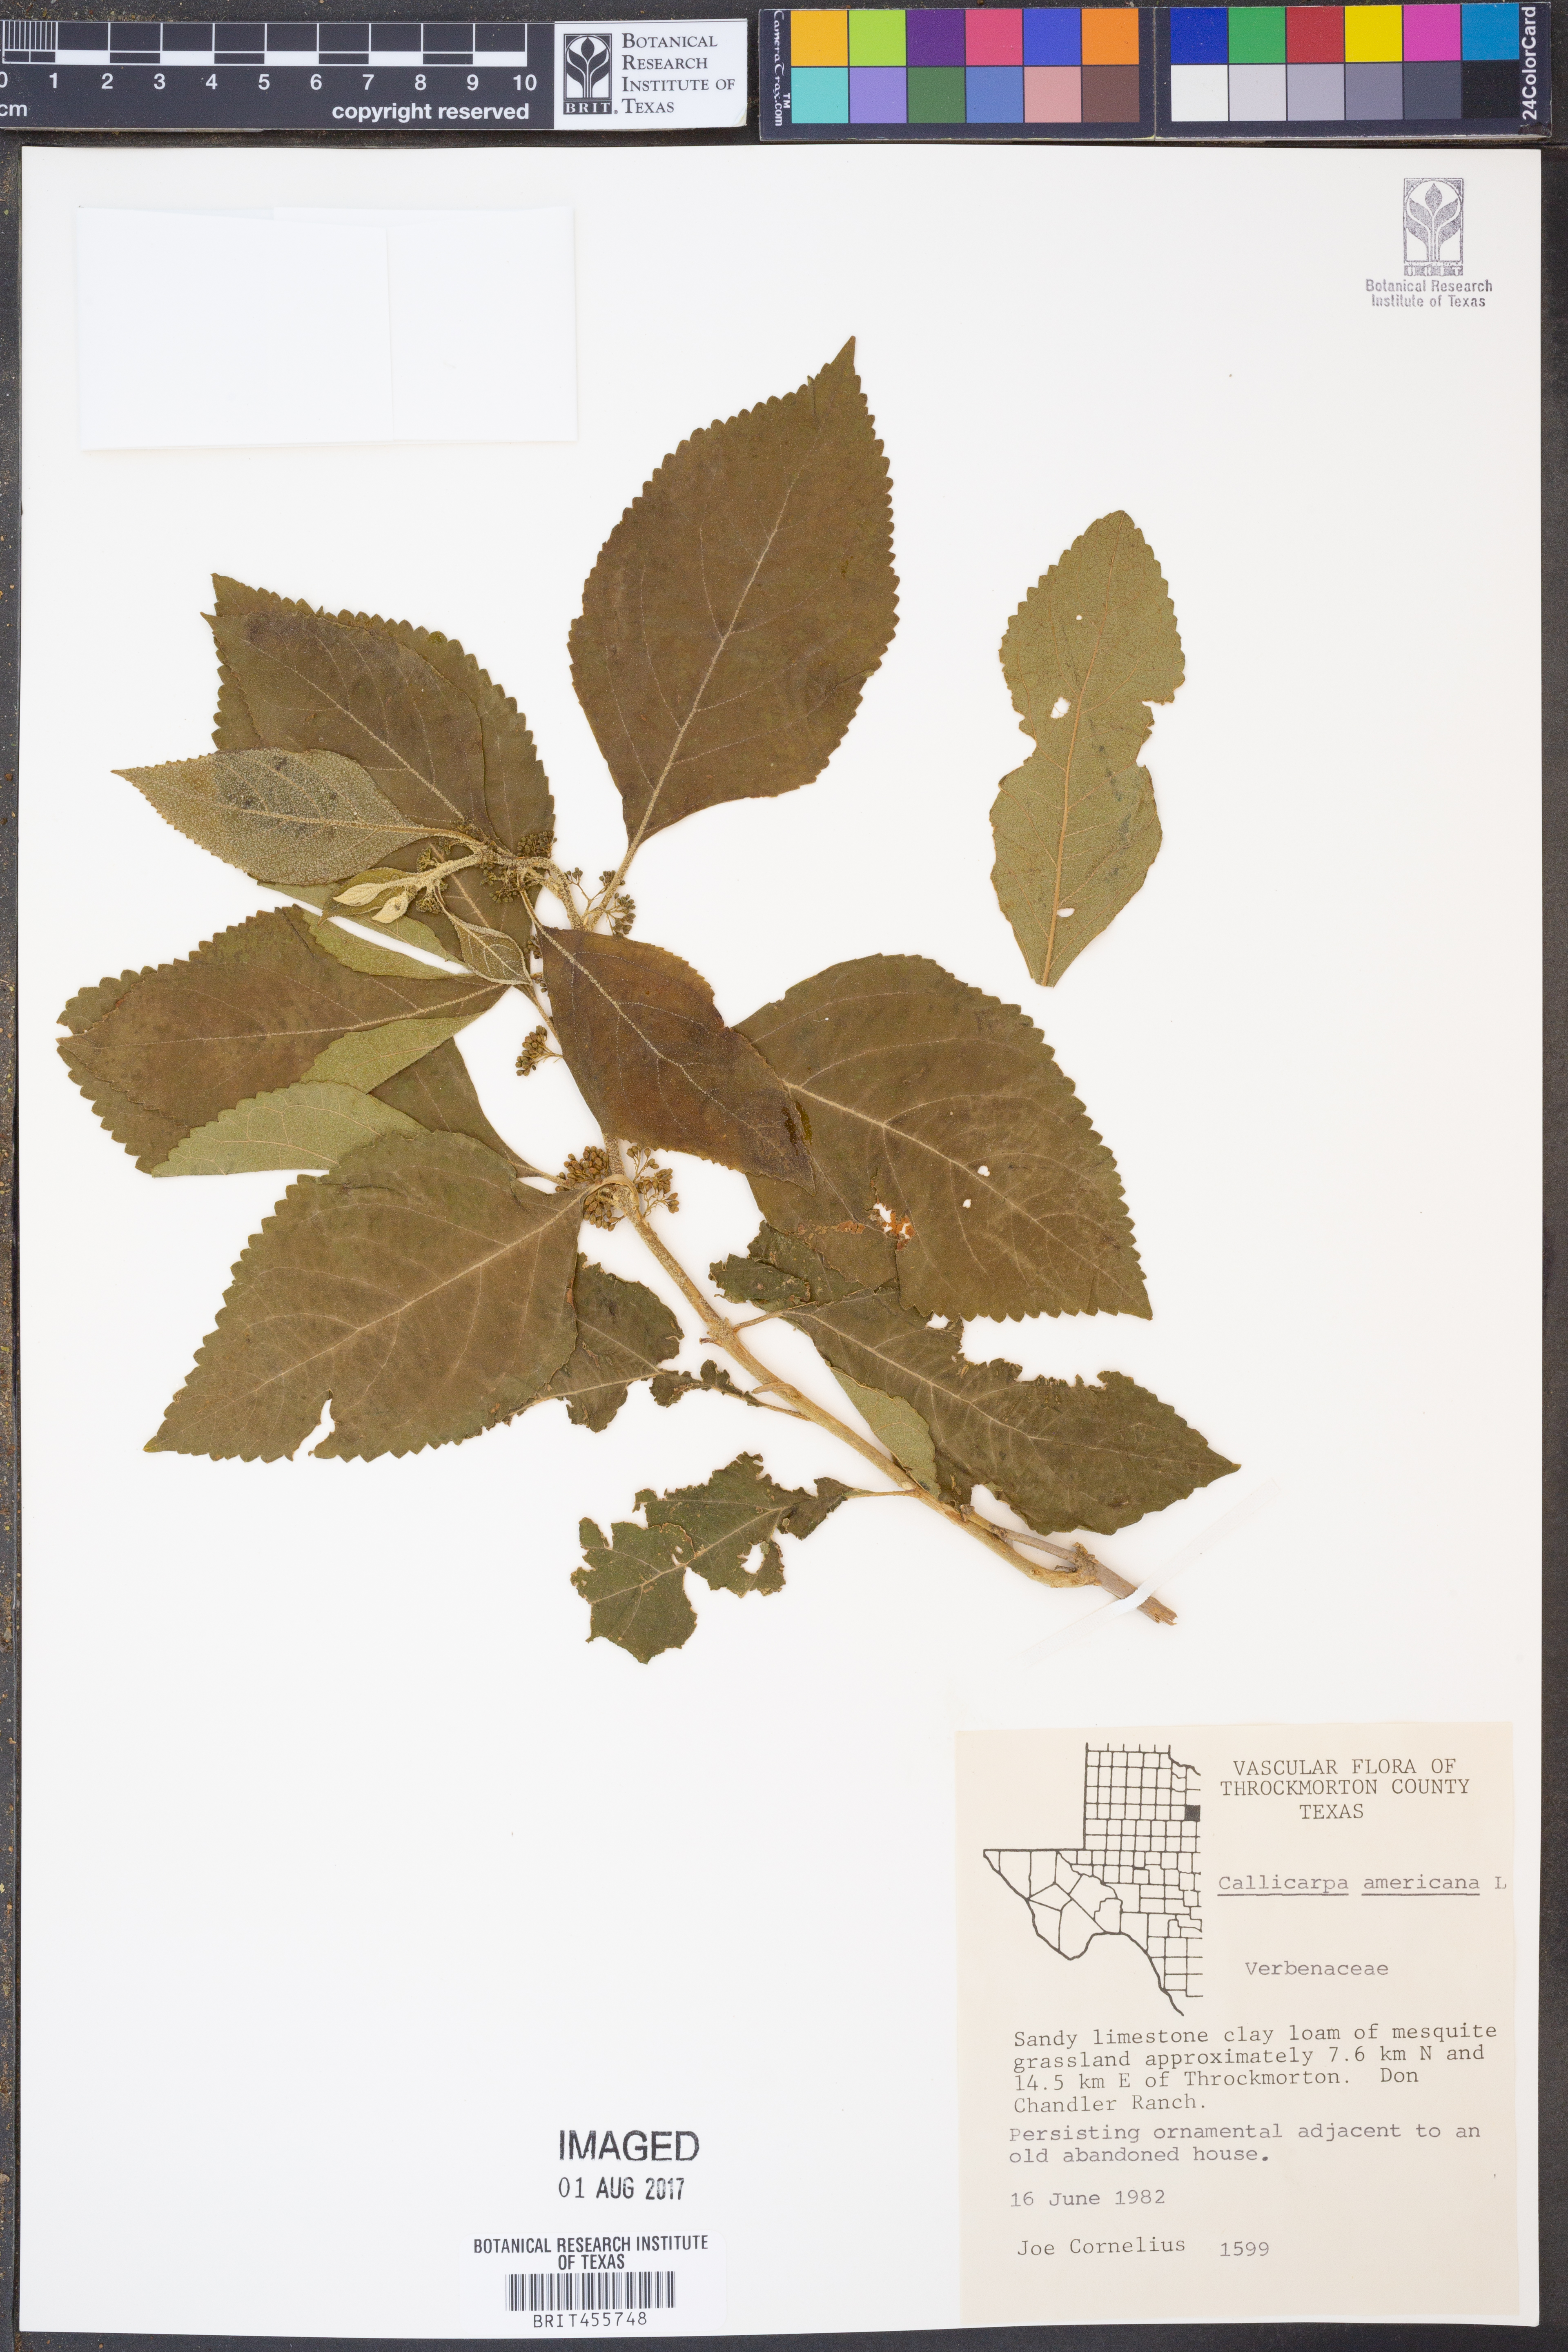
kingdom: Plantae
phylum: Tracheophyta
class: Magnoliopsida
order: Lamiales
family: Lamiaceae
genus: Callicarpa
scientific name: Callicarpa americana
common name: American beautyberry
